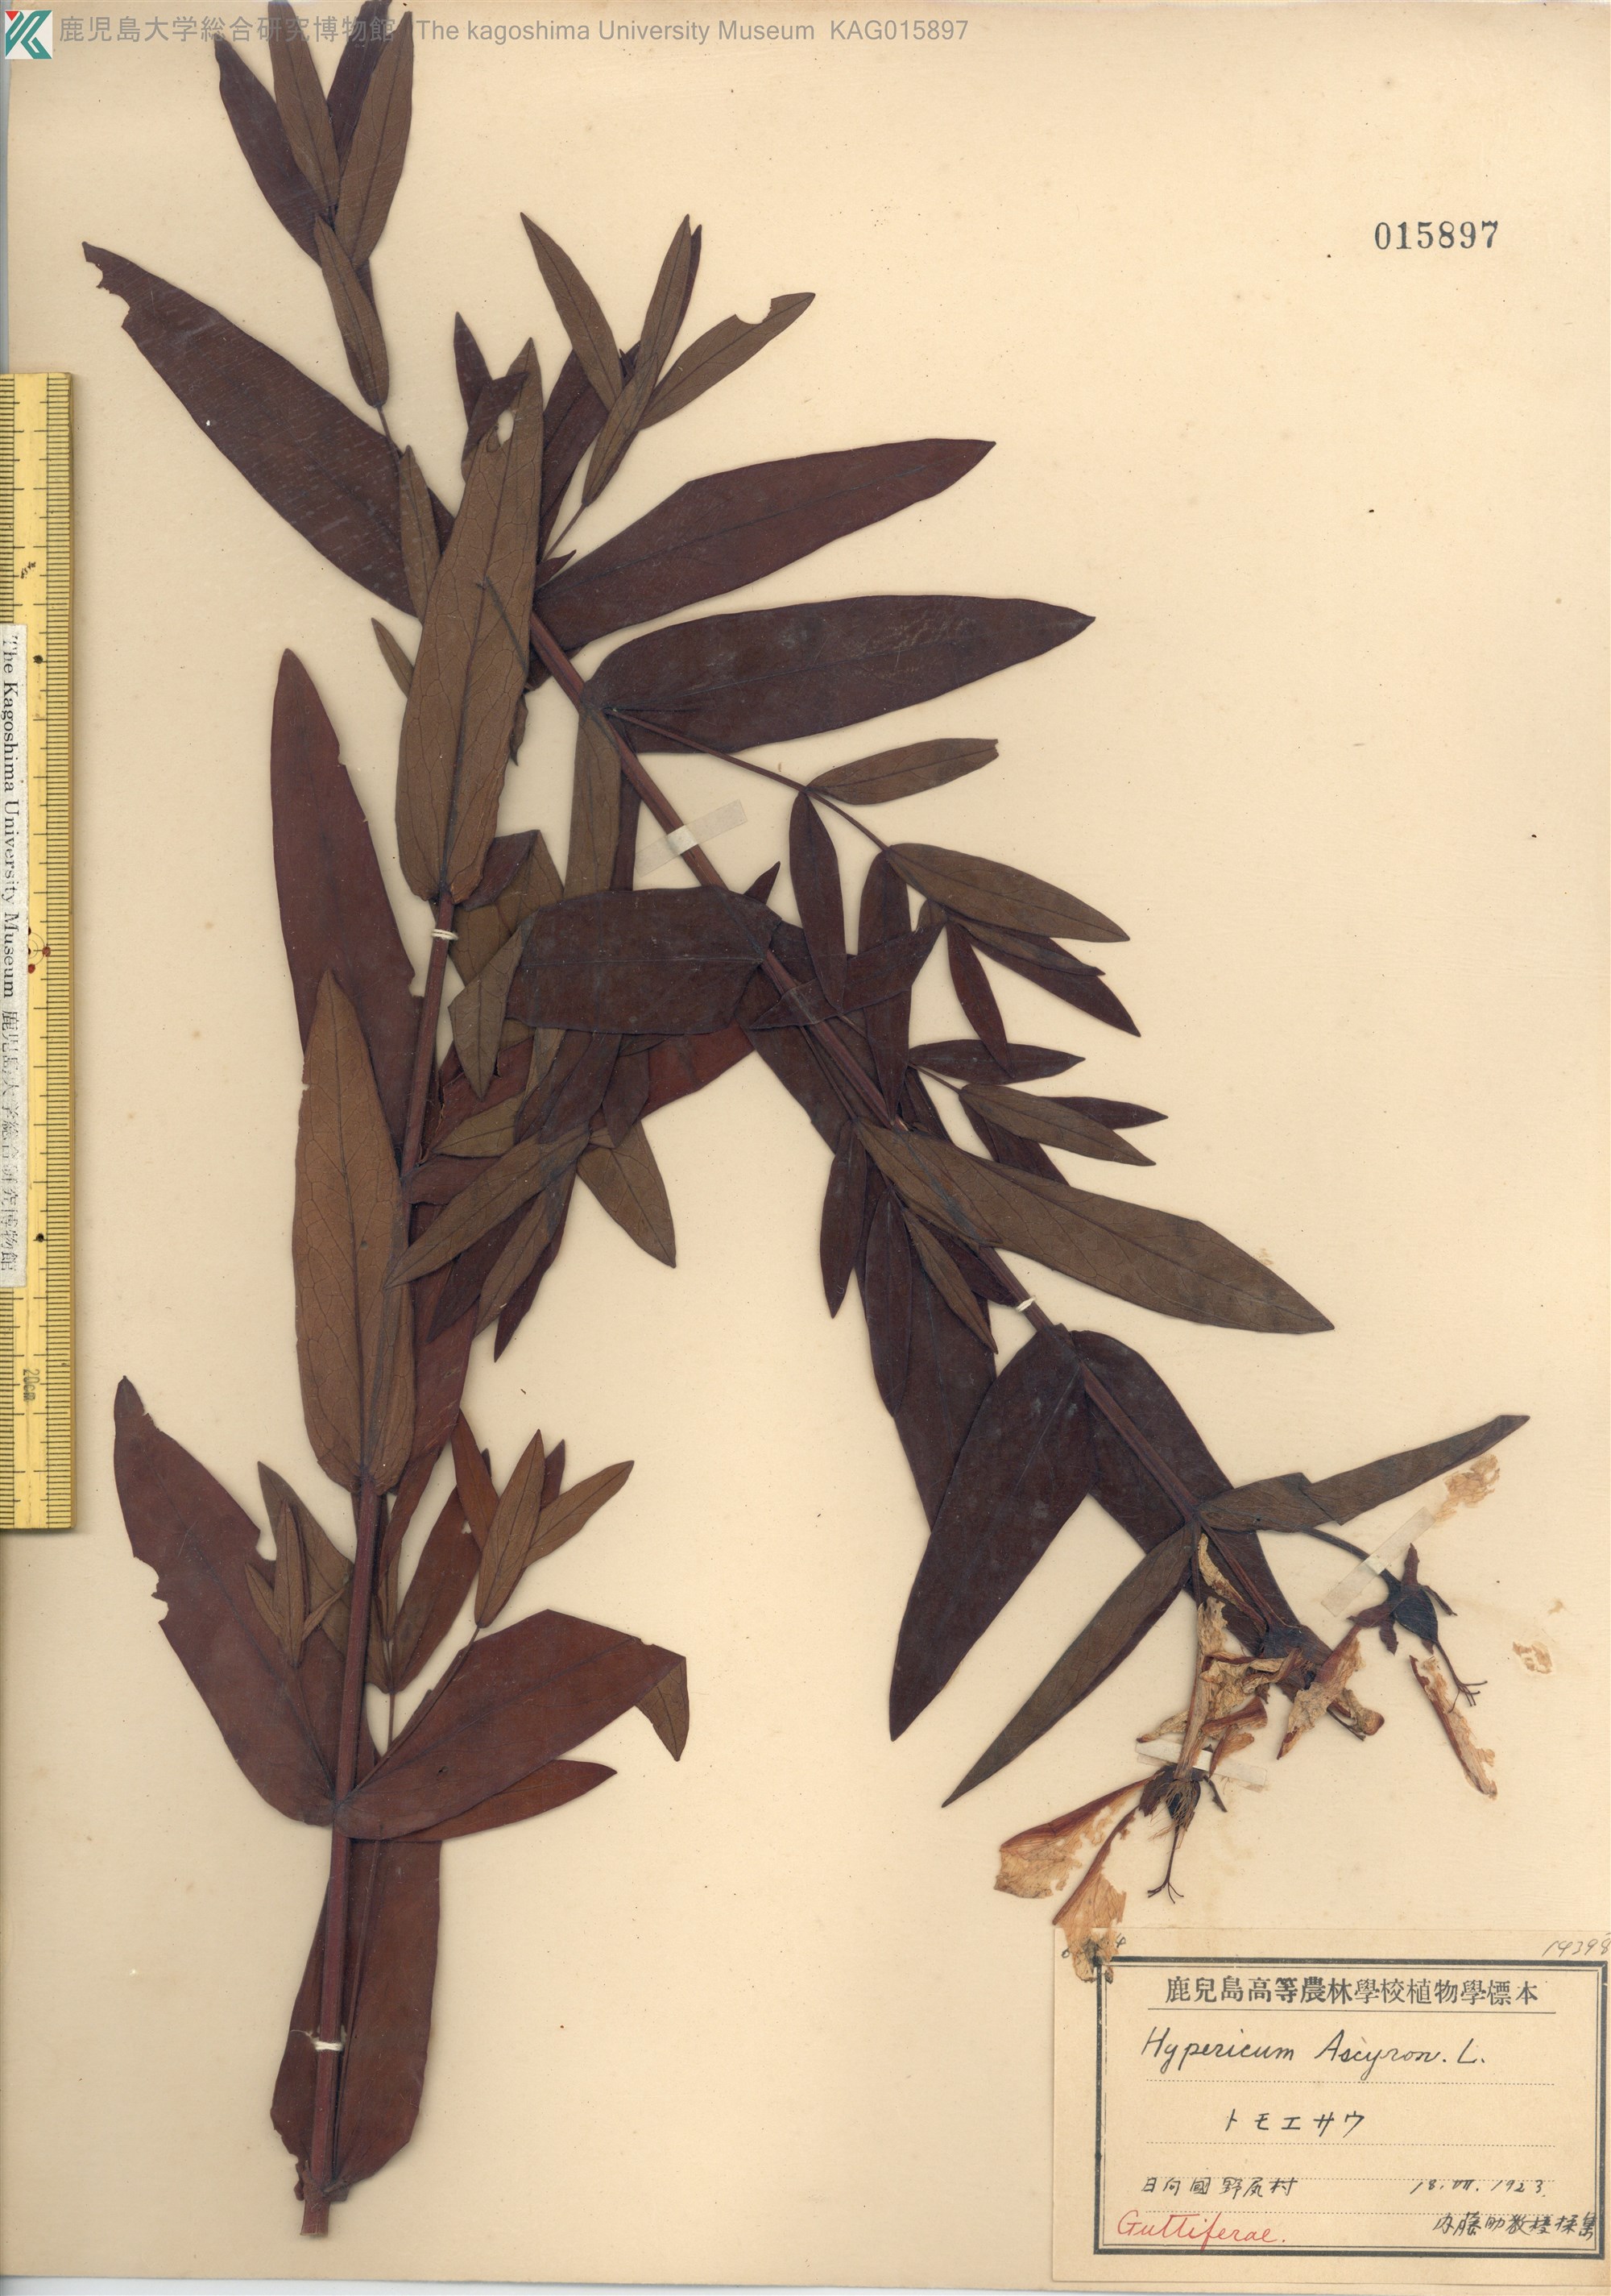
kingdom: Plantae
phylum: Tracheophyta
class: Magnoliopsida
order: Malpighiales
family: Hypericaceae
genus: Hypericum
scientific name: Hypericum ascyron
